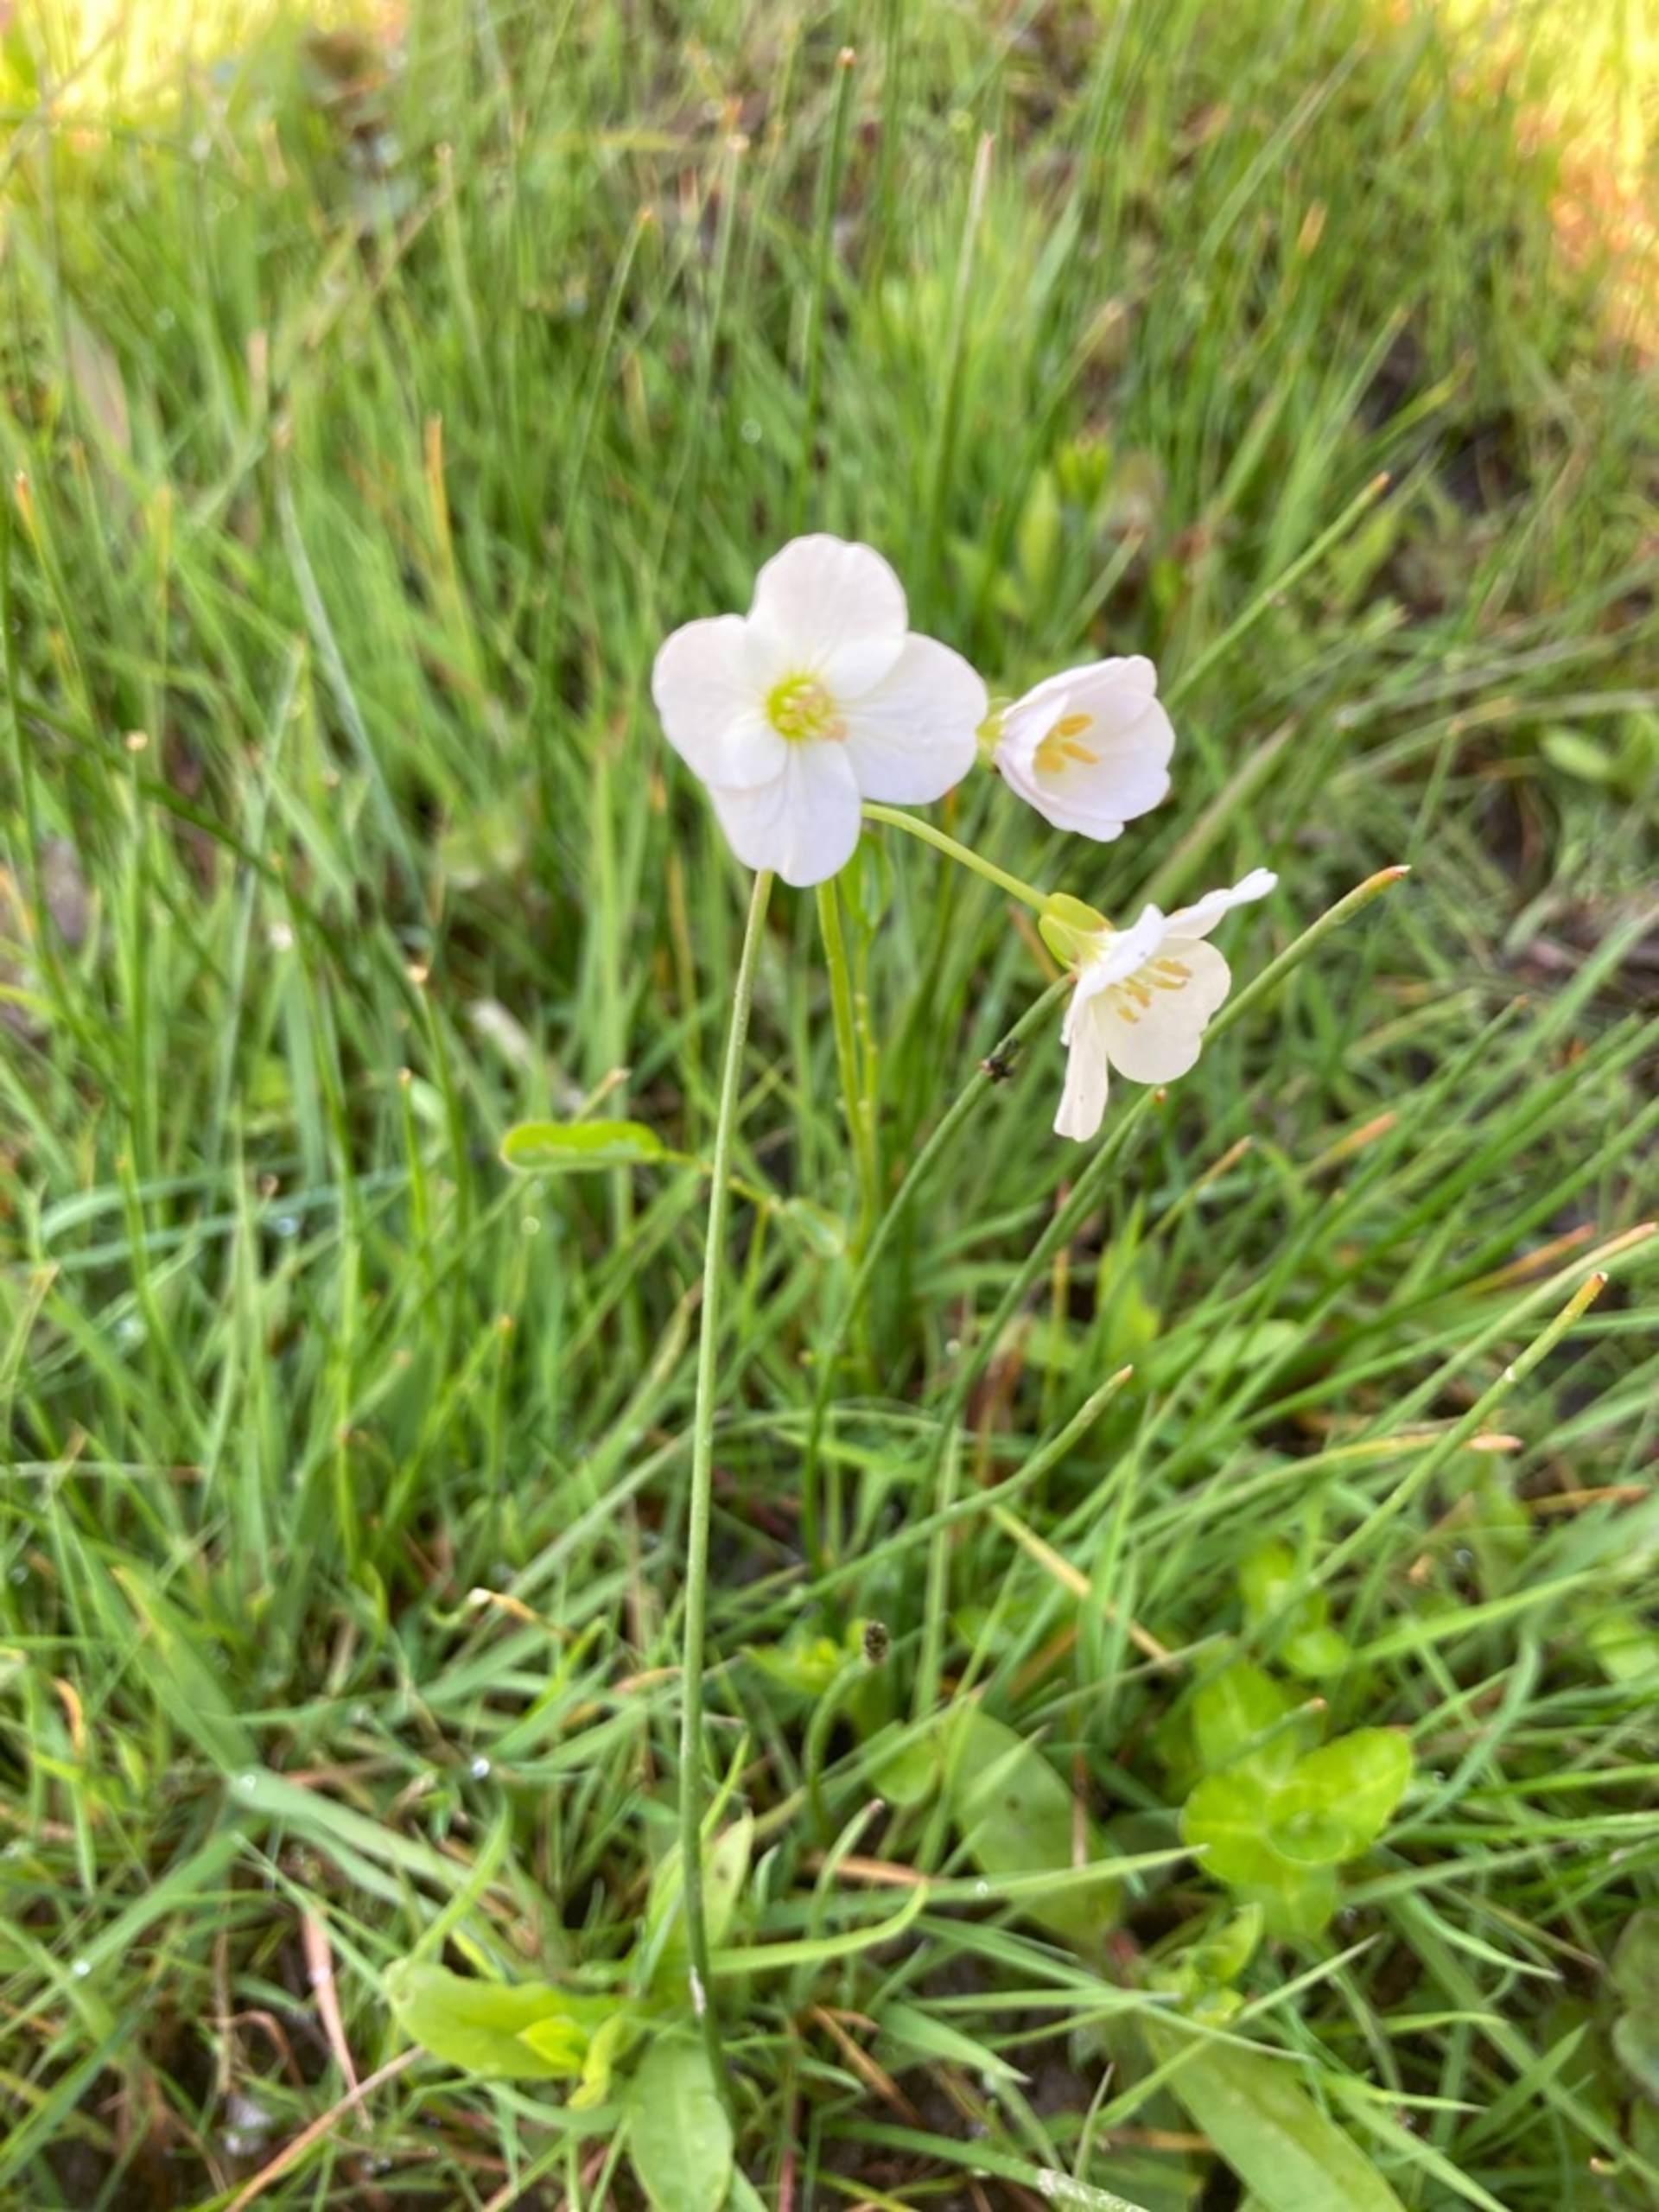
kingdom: Plantae
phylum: Tracheophyta
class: Magnoliopsida
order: Brassicales
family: Brassicaceae
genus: Cardamine
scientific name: Cardamine pratensis
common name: Engkarse
